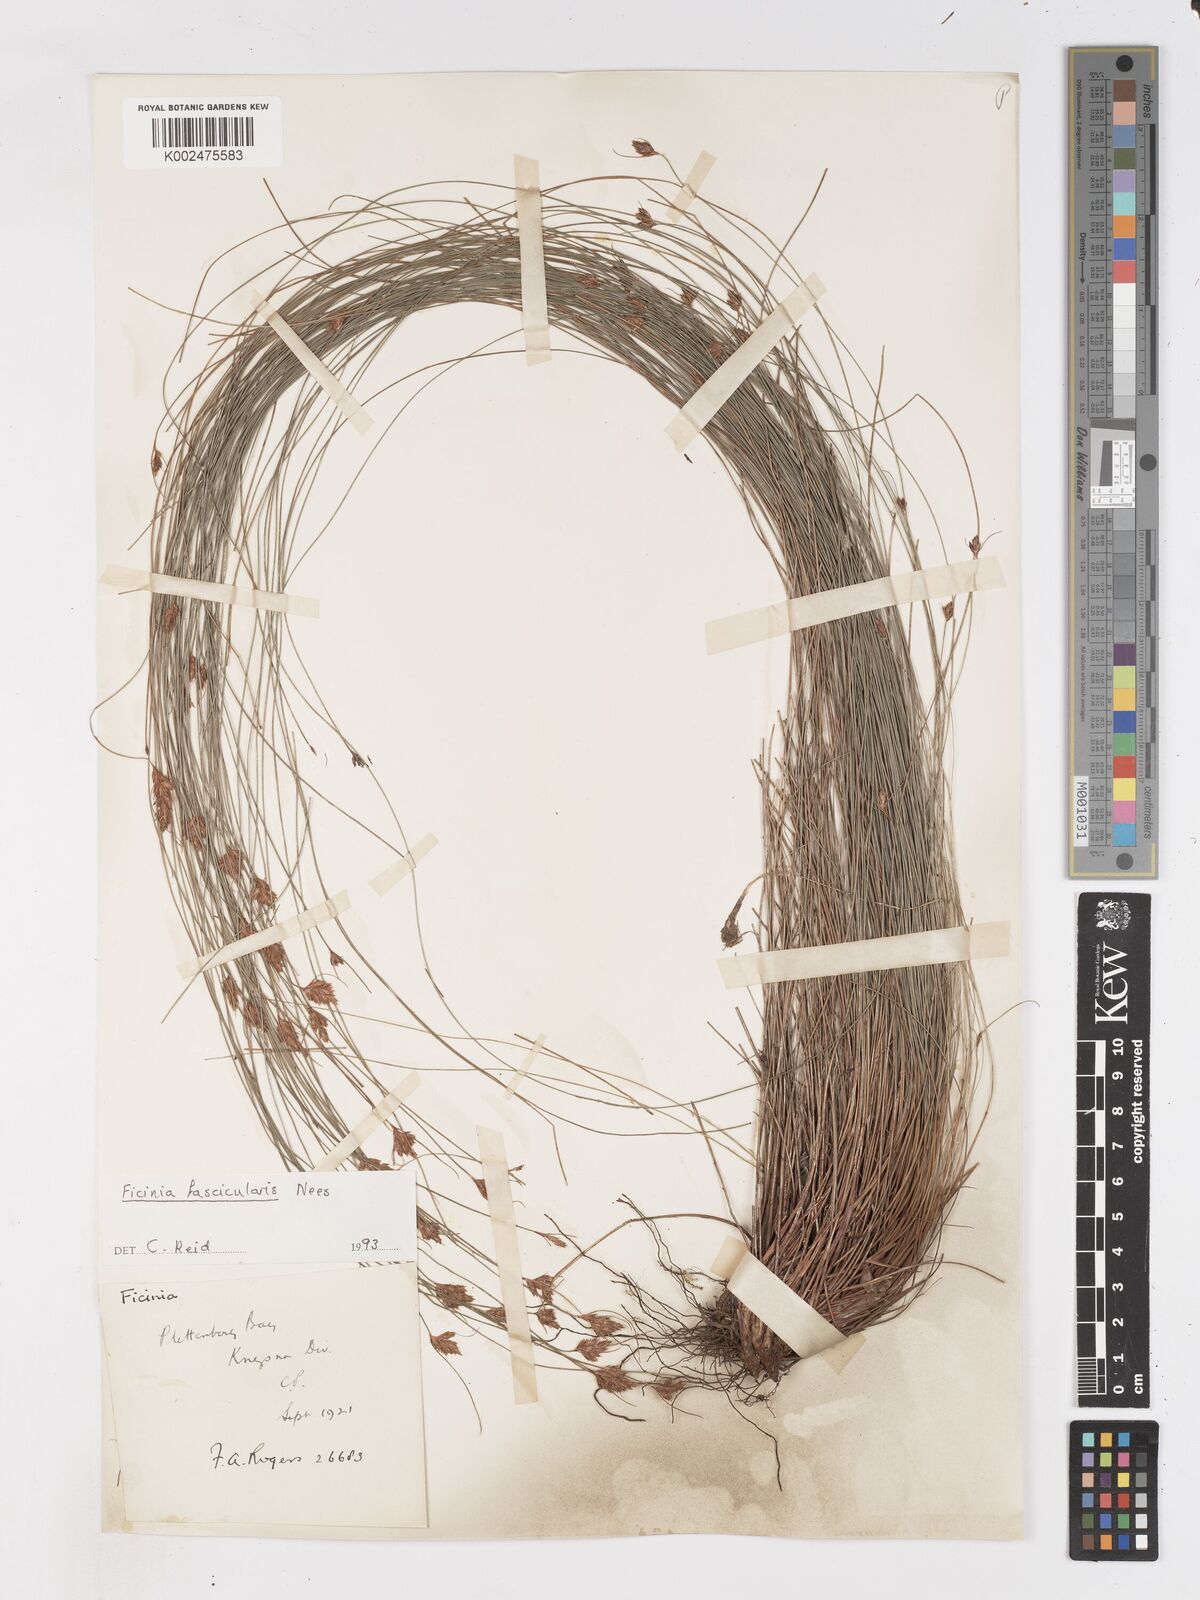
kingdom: Plantae
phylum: Tracheophyta
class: Liliopsida
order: Poales
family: Cyperaceae
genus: Ficinia
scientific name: Ficinia fascicularis
